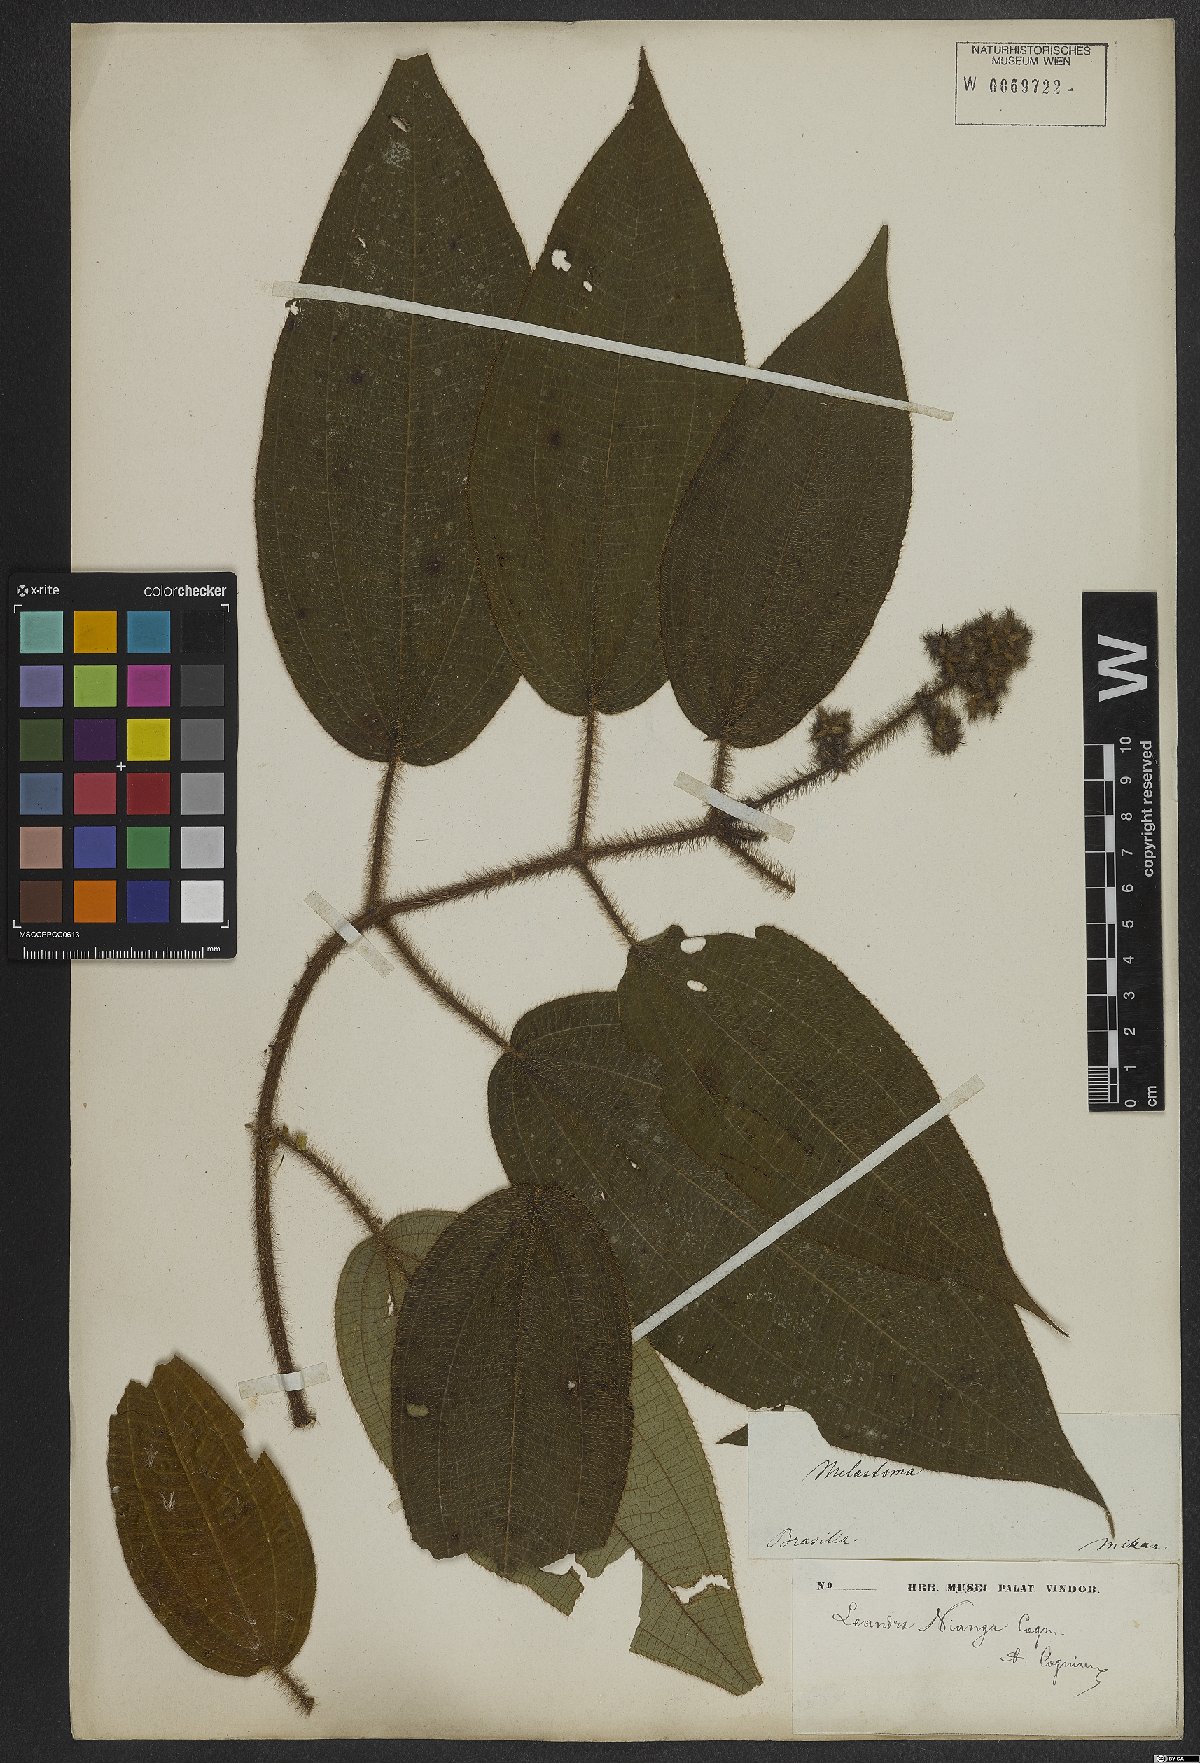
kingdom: Plantae
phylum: Tracheophyta
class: Magnoliopsida
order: Myrtales
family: Melastomataceae
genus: Miconia
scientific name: Miconia nianga
